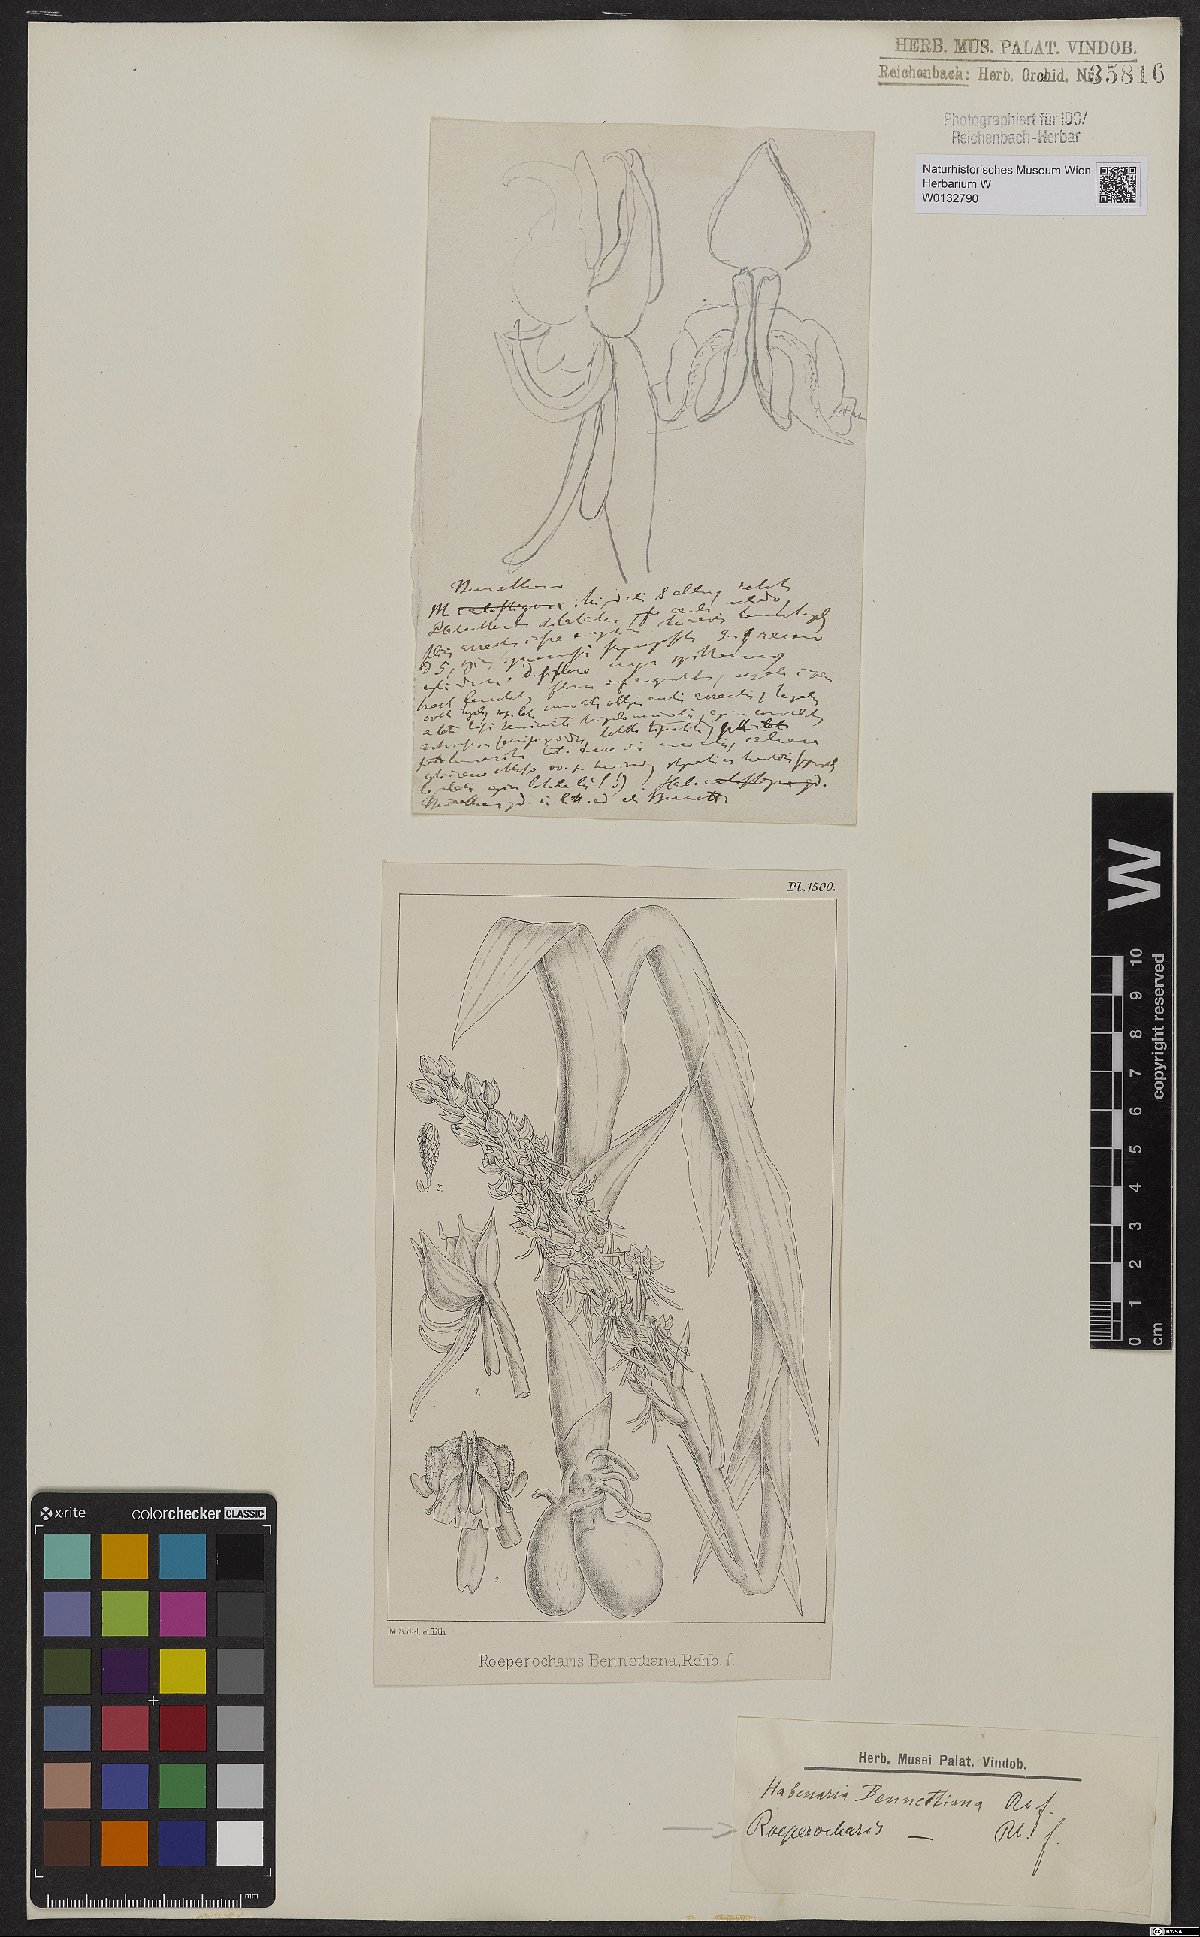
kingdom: Plantae
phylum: Tracheophyta
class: Liliopsida
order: Asparagales
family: Orchidaceae
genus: Roeperocharis
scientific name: Roeperocharis bennettiana
